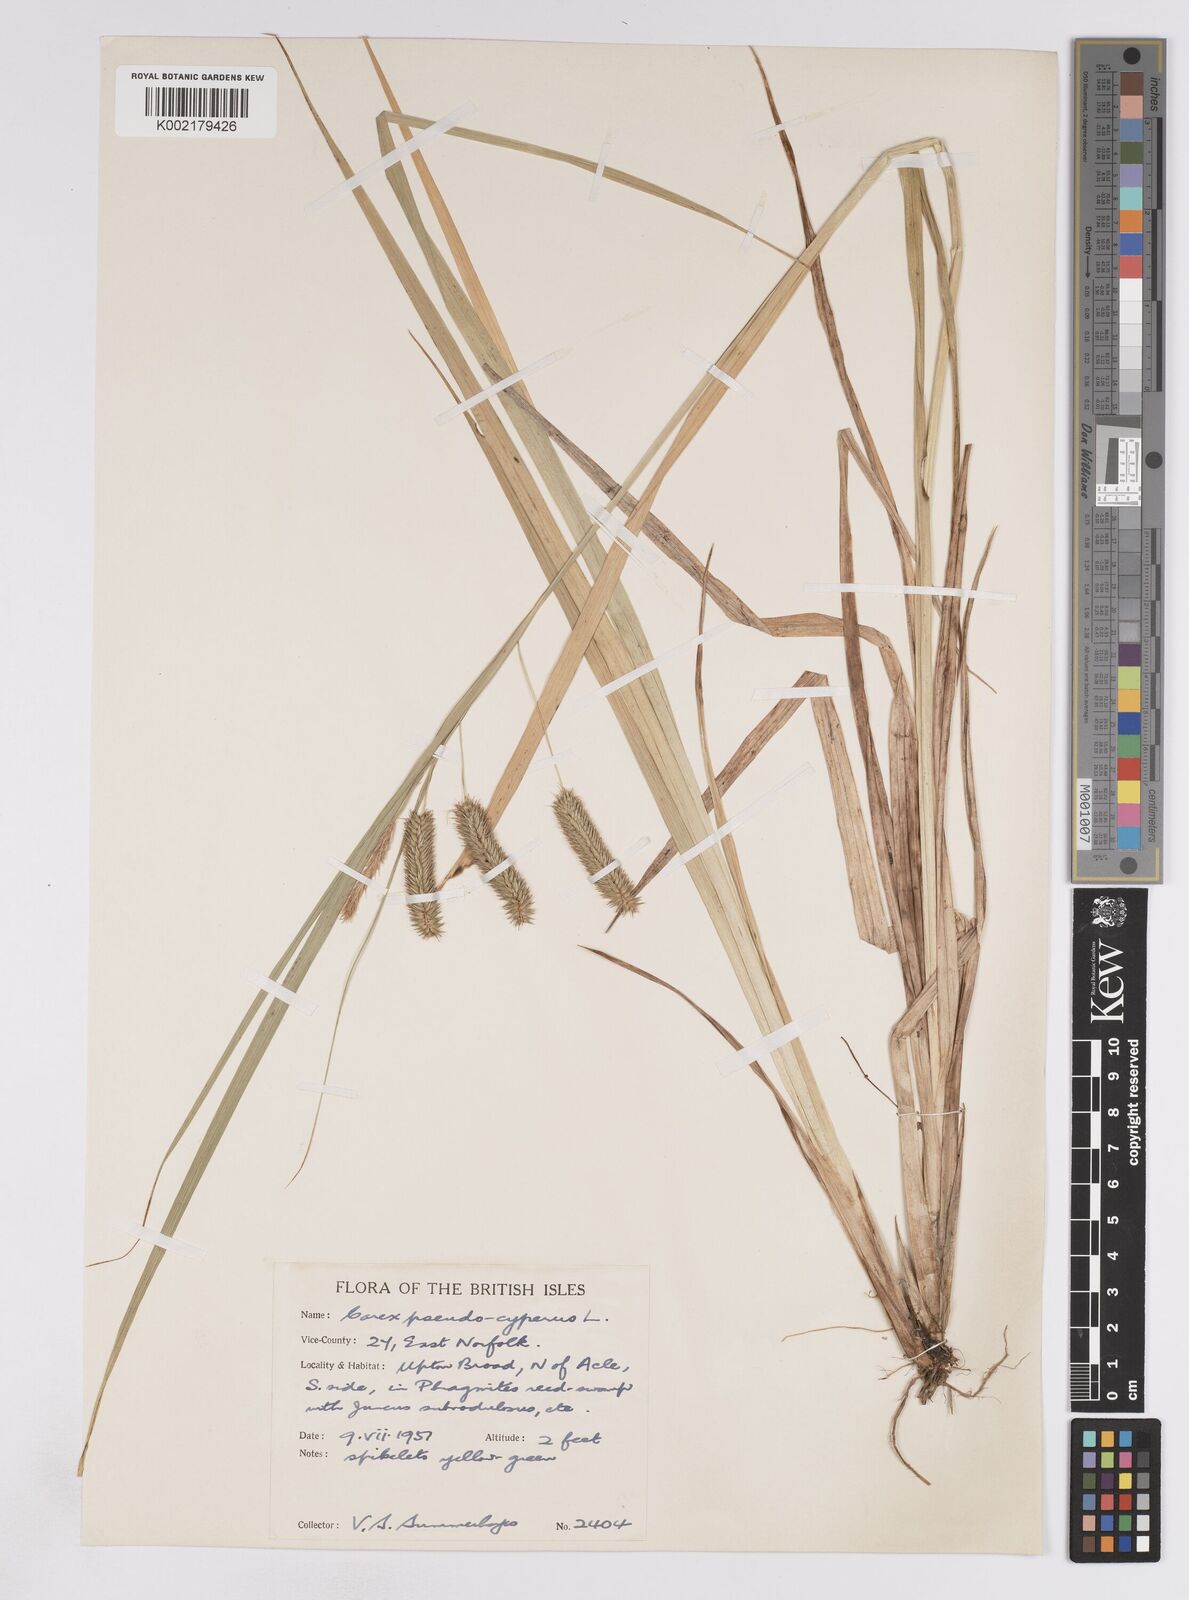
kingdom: Plantae
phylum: Tracheophyta
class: Liliopsida
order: Poales
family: Cyperaceae
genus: Carex
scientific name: Carex pseudocyperus
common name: Cyperus sedge
